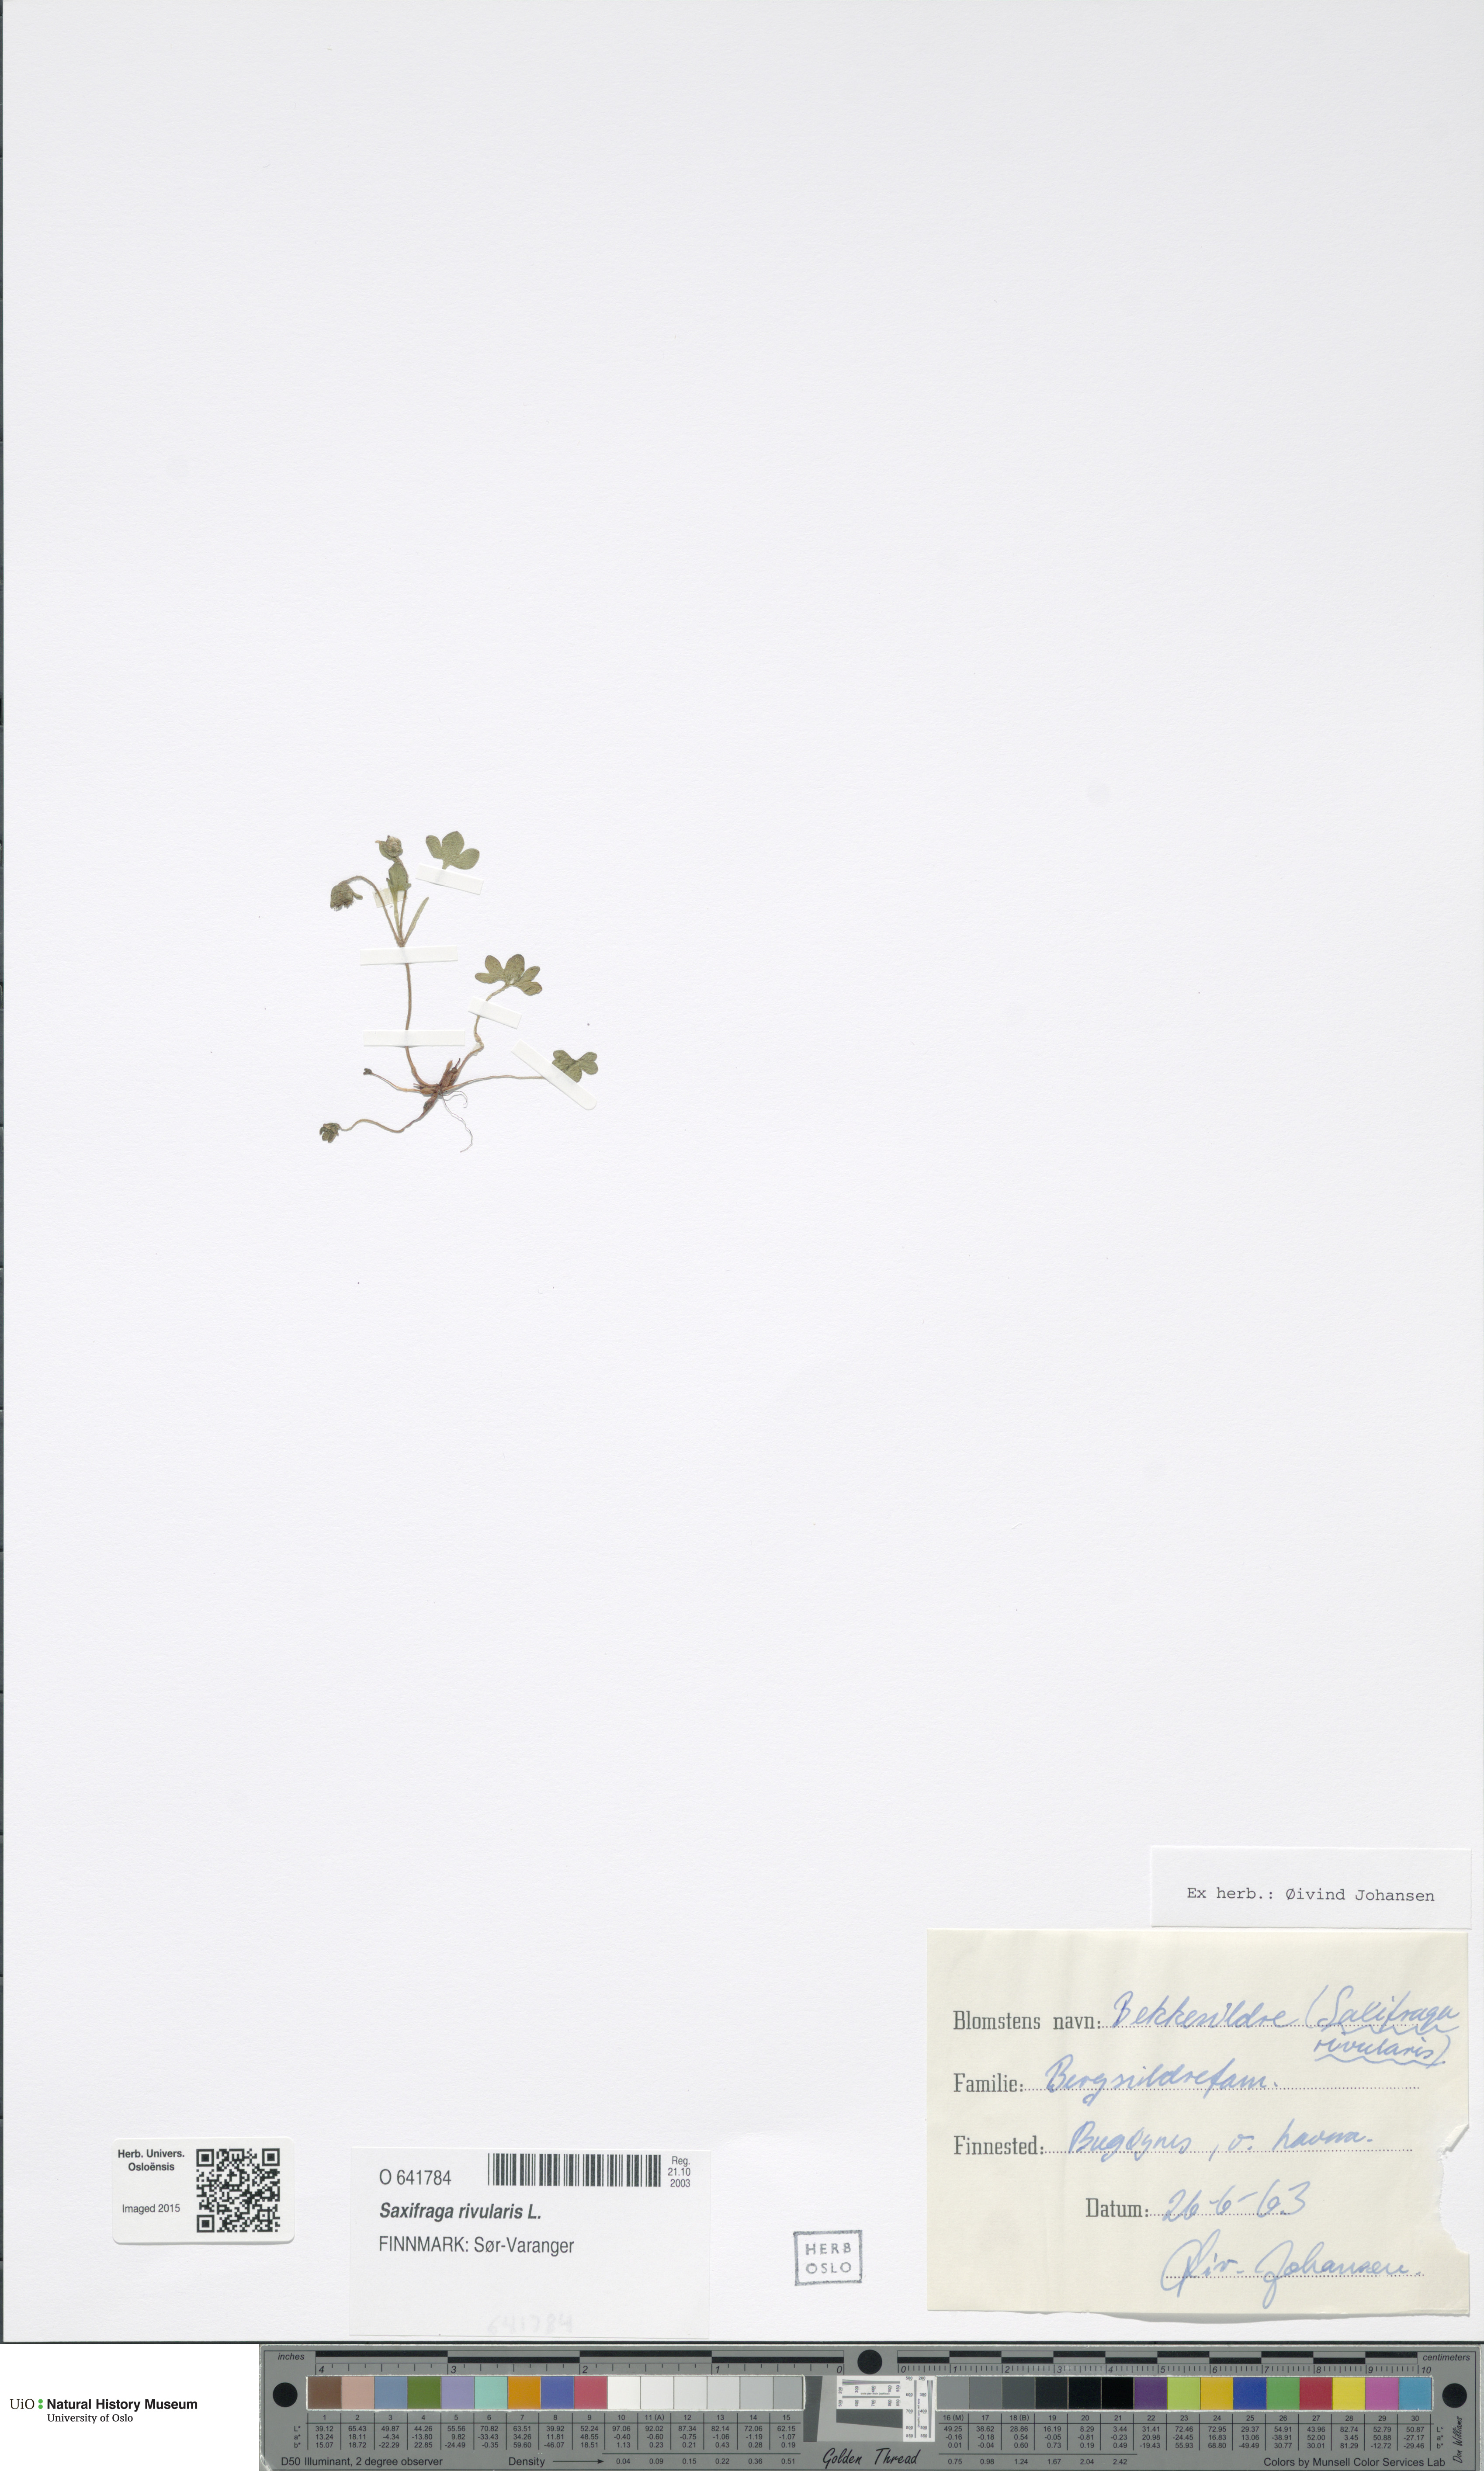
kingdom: Plantae
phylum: Tracheophyta
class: Magnoliopsida
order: Saxifragales
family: Saxifragaceae
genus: Saxifraga
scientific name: Saxifraga rivularis
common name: Highland saxifrage
